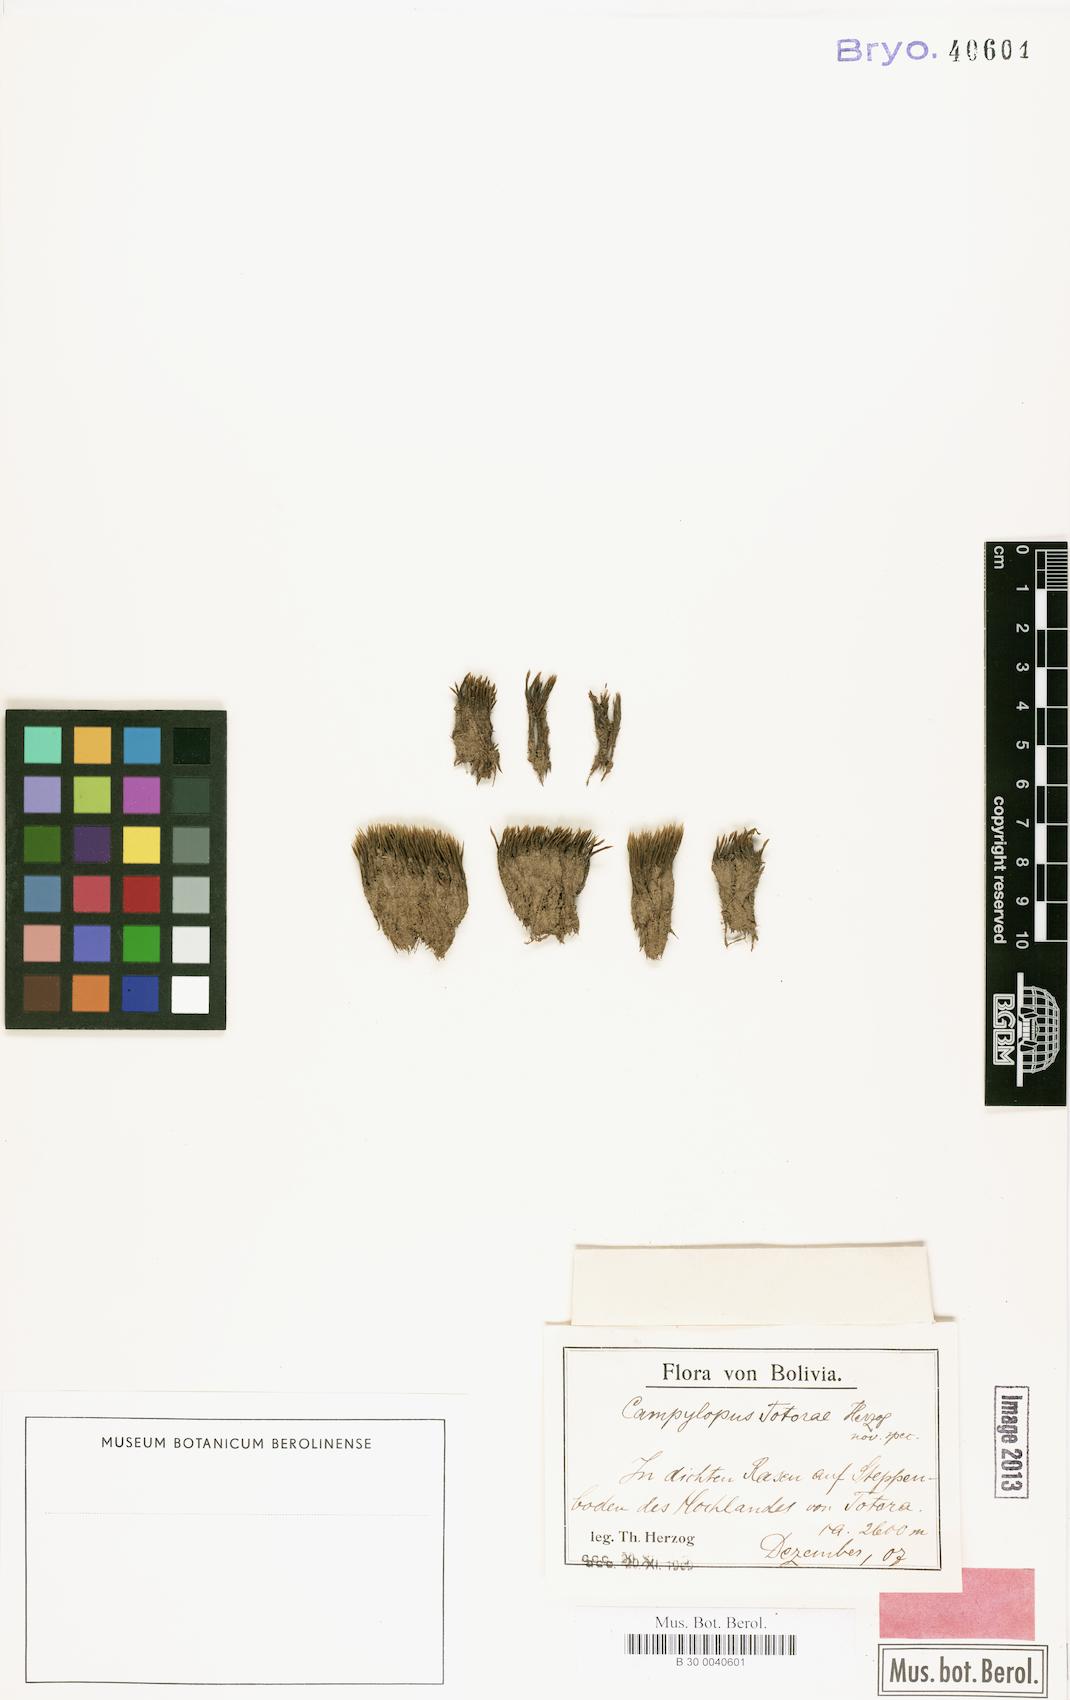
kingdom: Plantae
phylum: Bryophyta
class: Bryopsida
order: Dicranales
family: Leucobryaceae
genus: Campylopus
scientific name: Campylopus totorae
